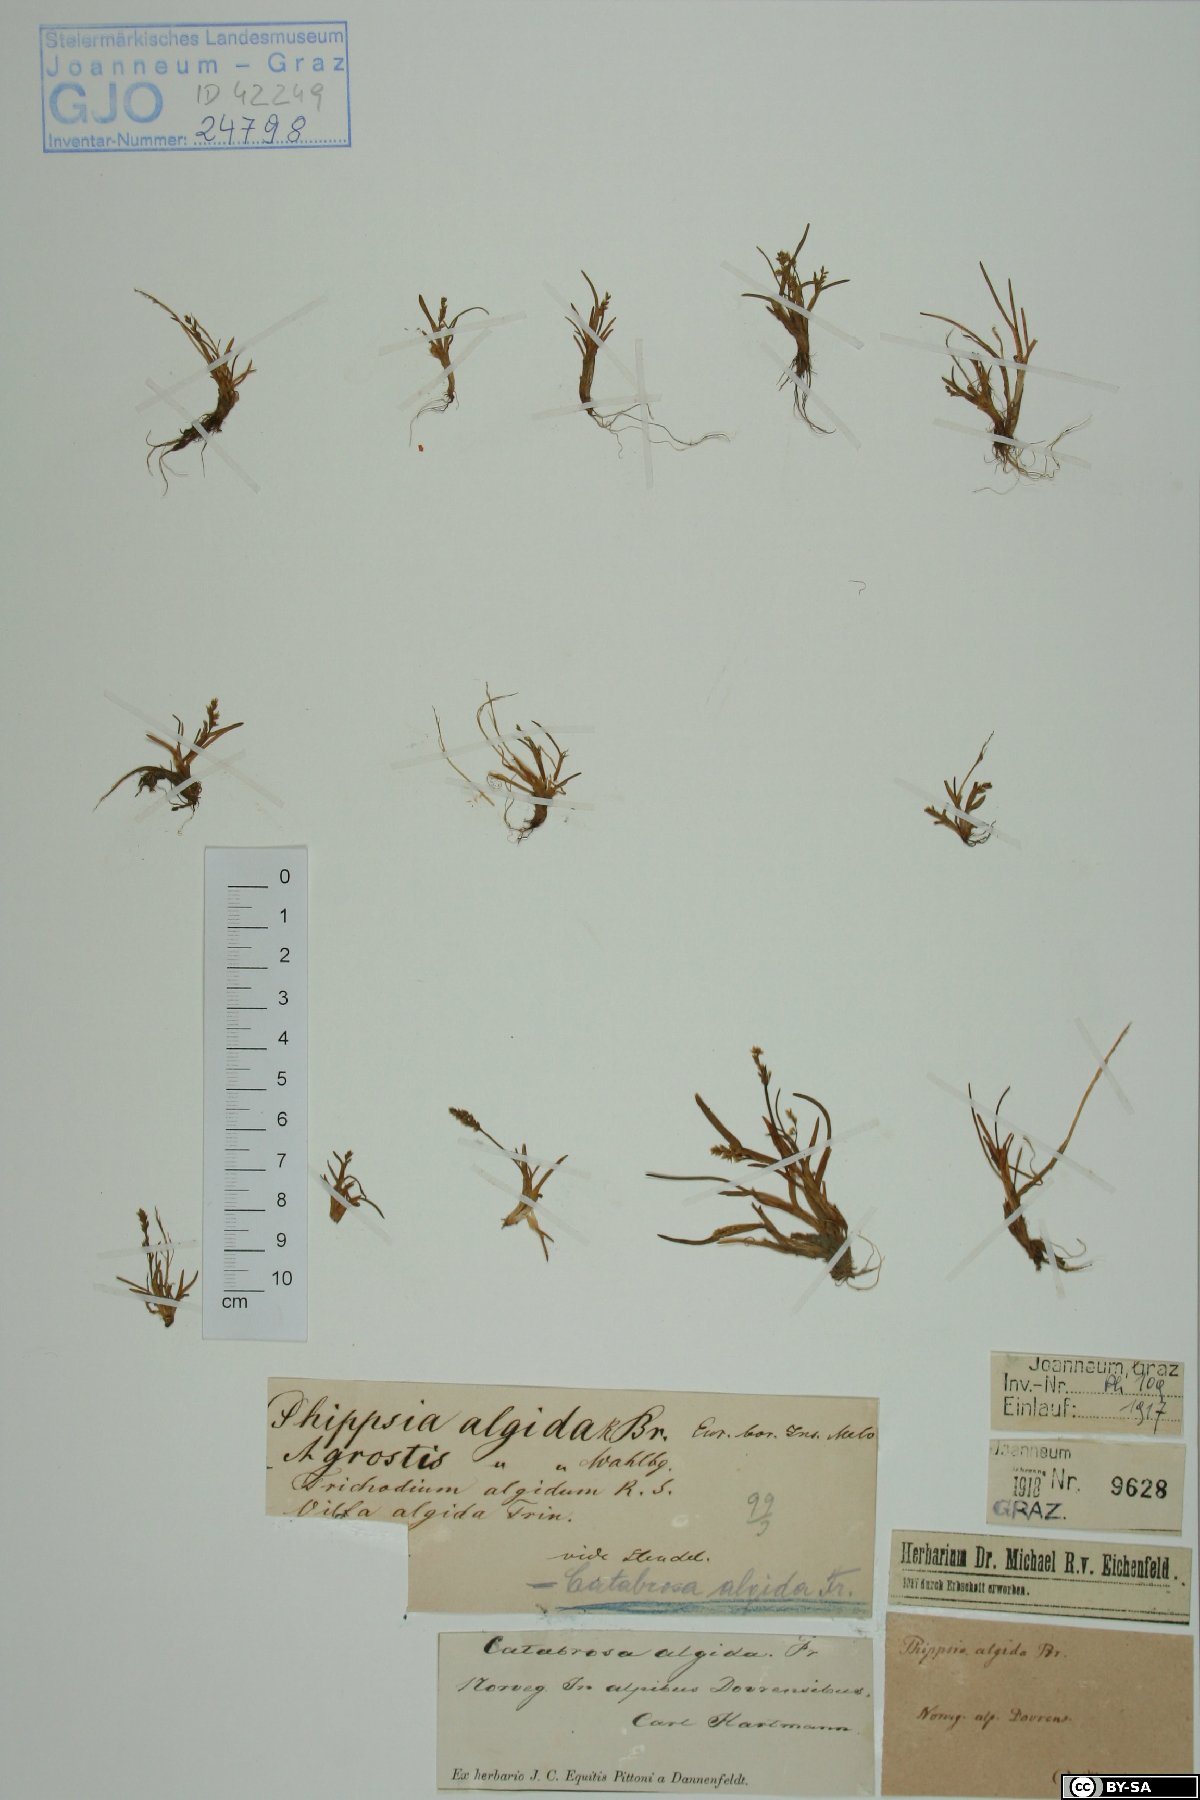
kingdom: Plantae
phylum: Tracheophyta
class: Liliopsida
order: Poales
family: Poaceae
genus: Phippsia
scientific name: Phippsia algida
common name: Ice grass
